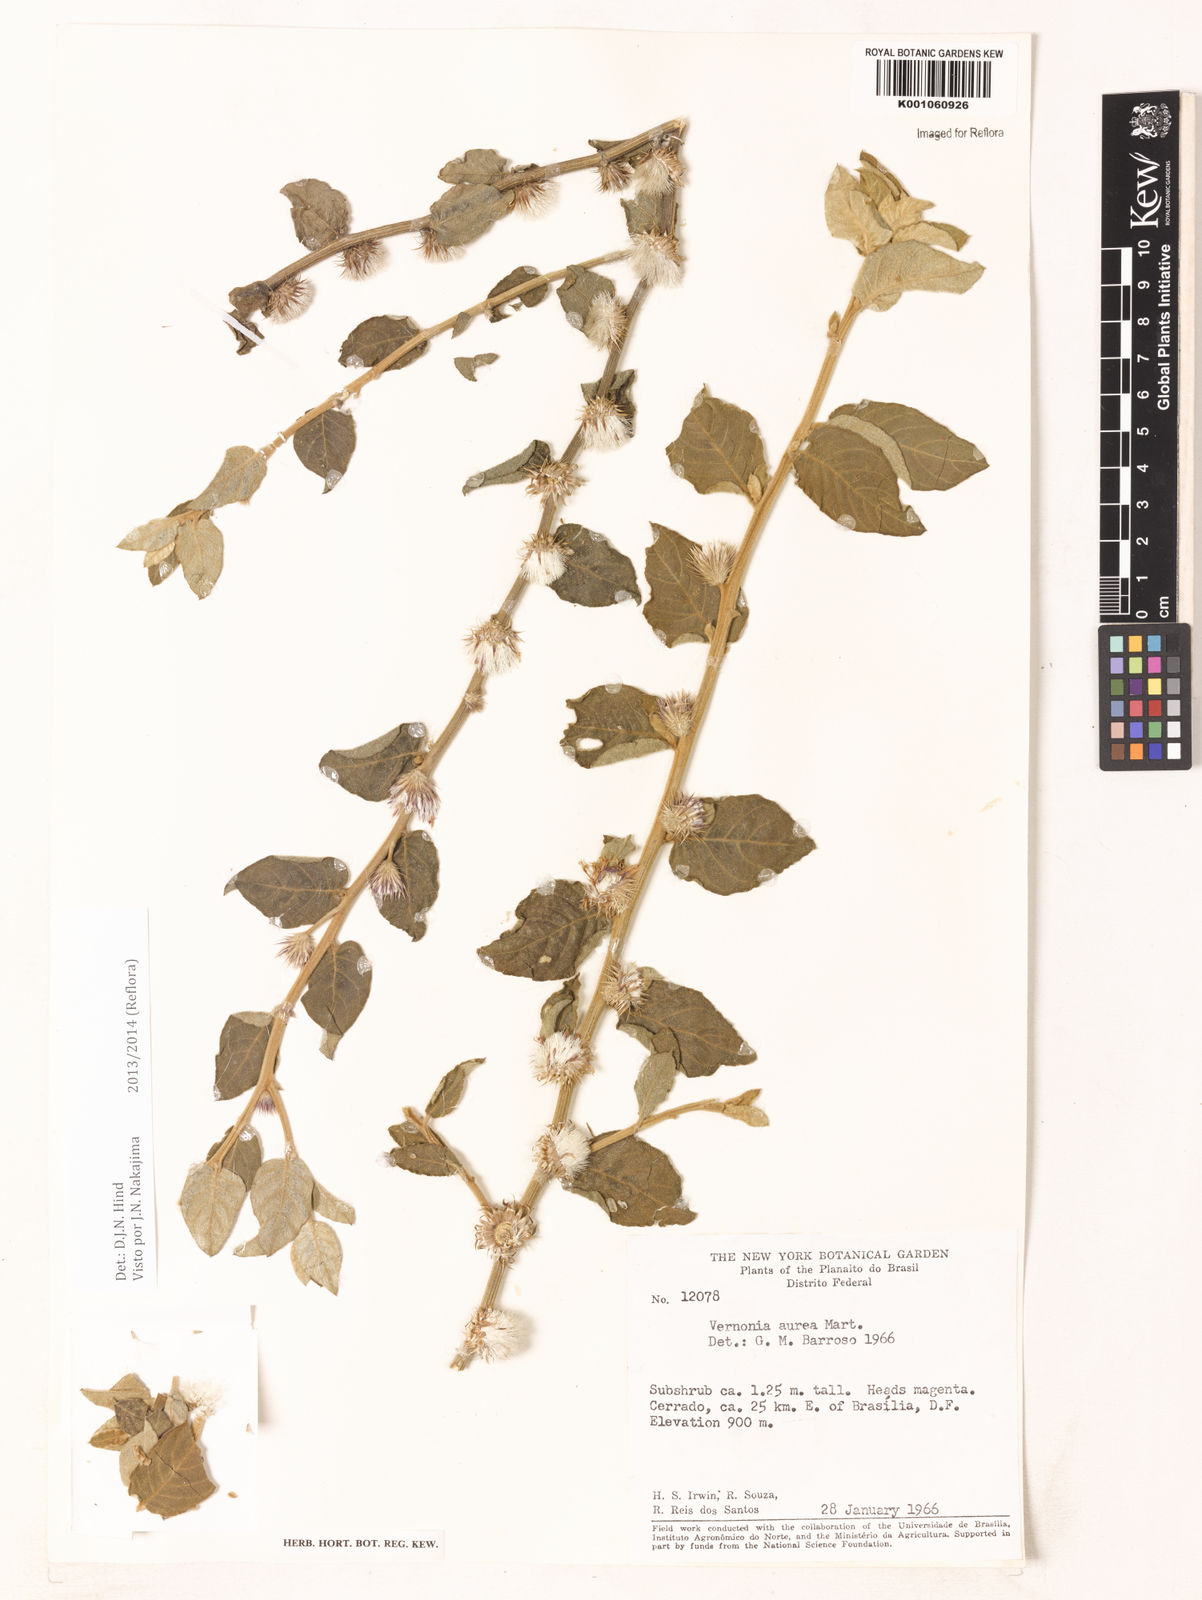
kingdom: Plantae
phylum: Tracheophyta
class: Magnoliopsida
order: Asterales
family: Asteraceae
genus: Lepidaploa
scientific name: Lepidaploa aurea
